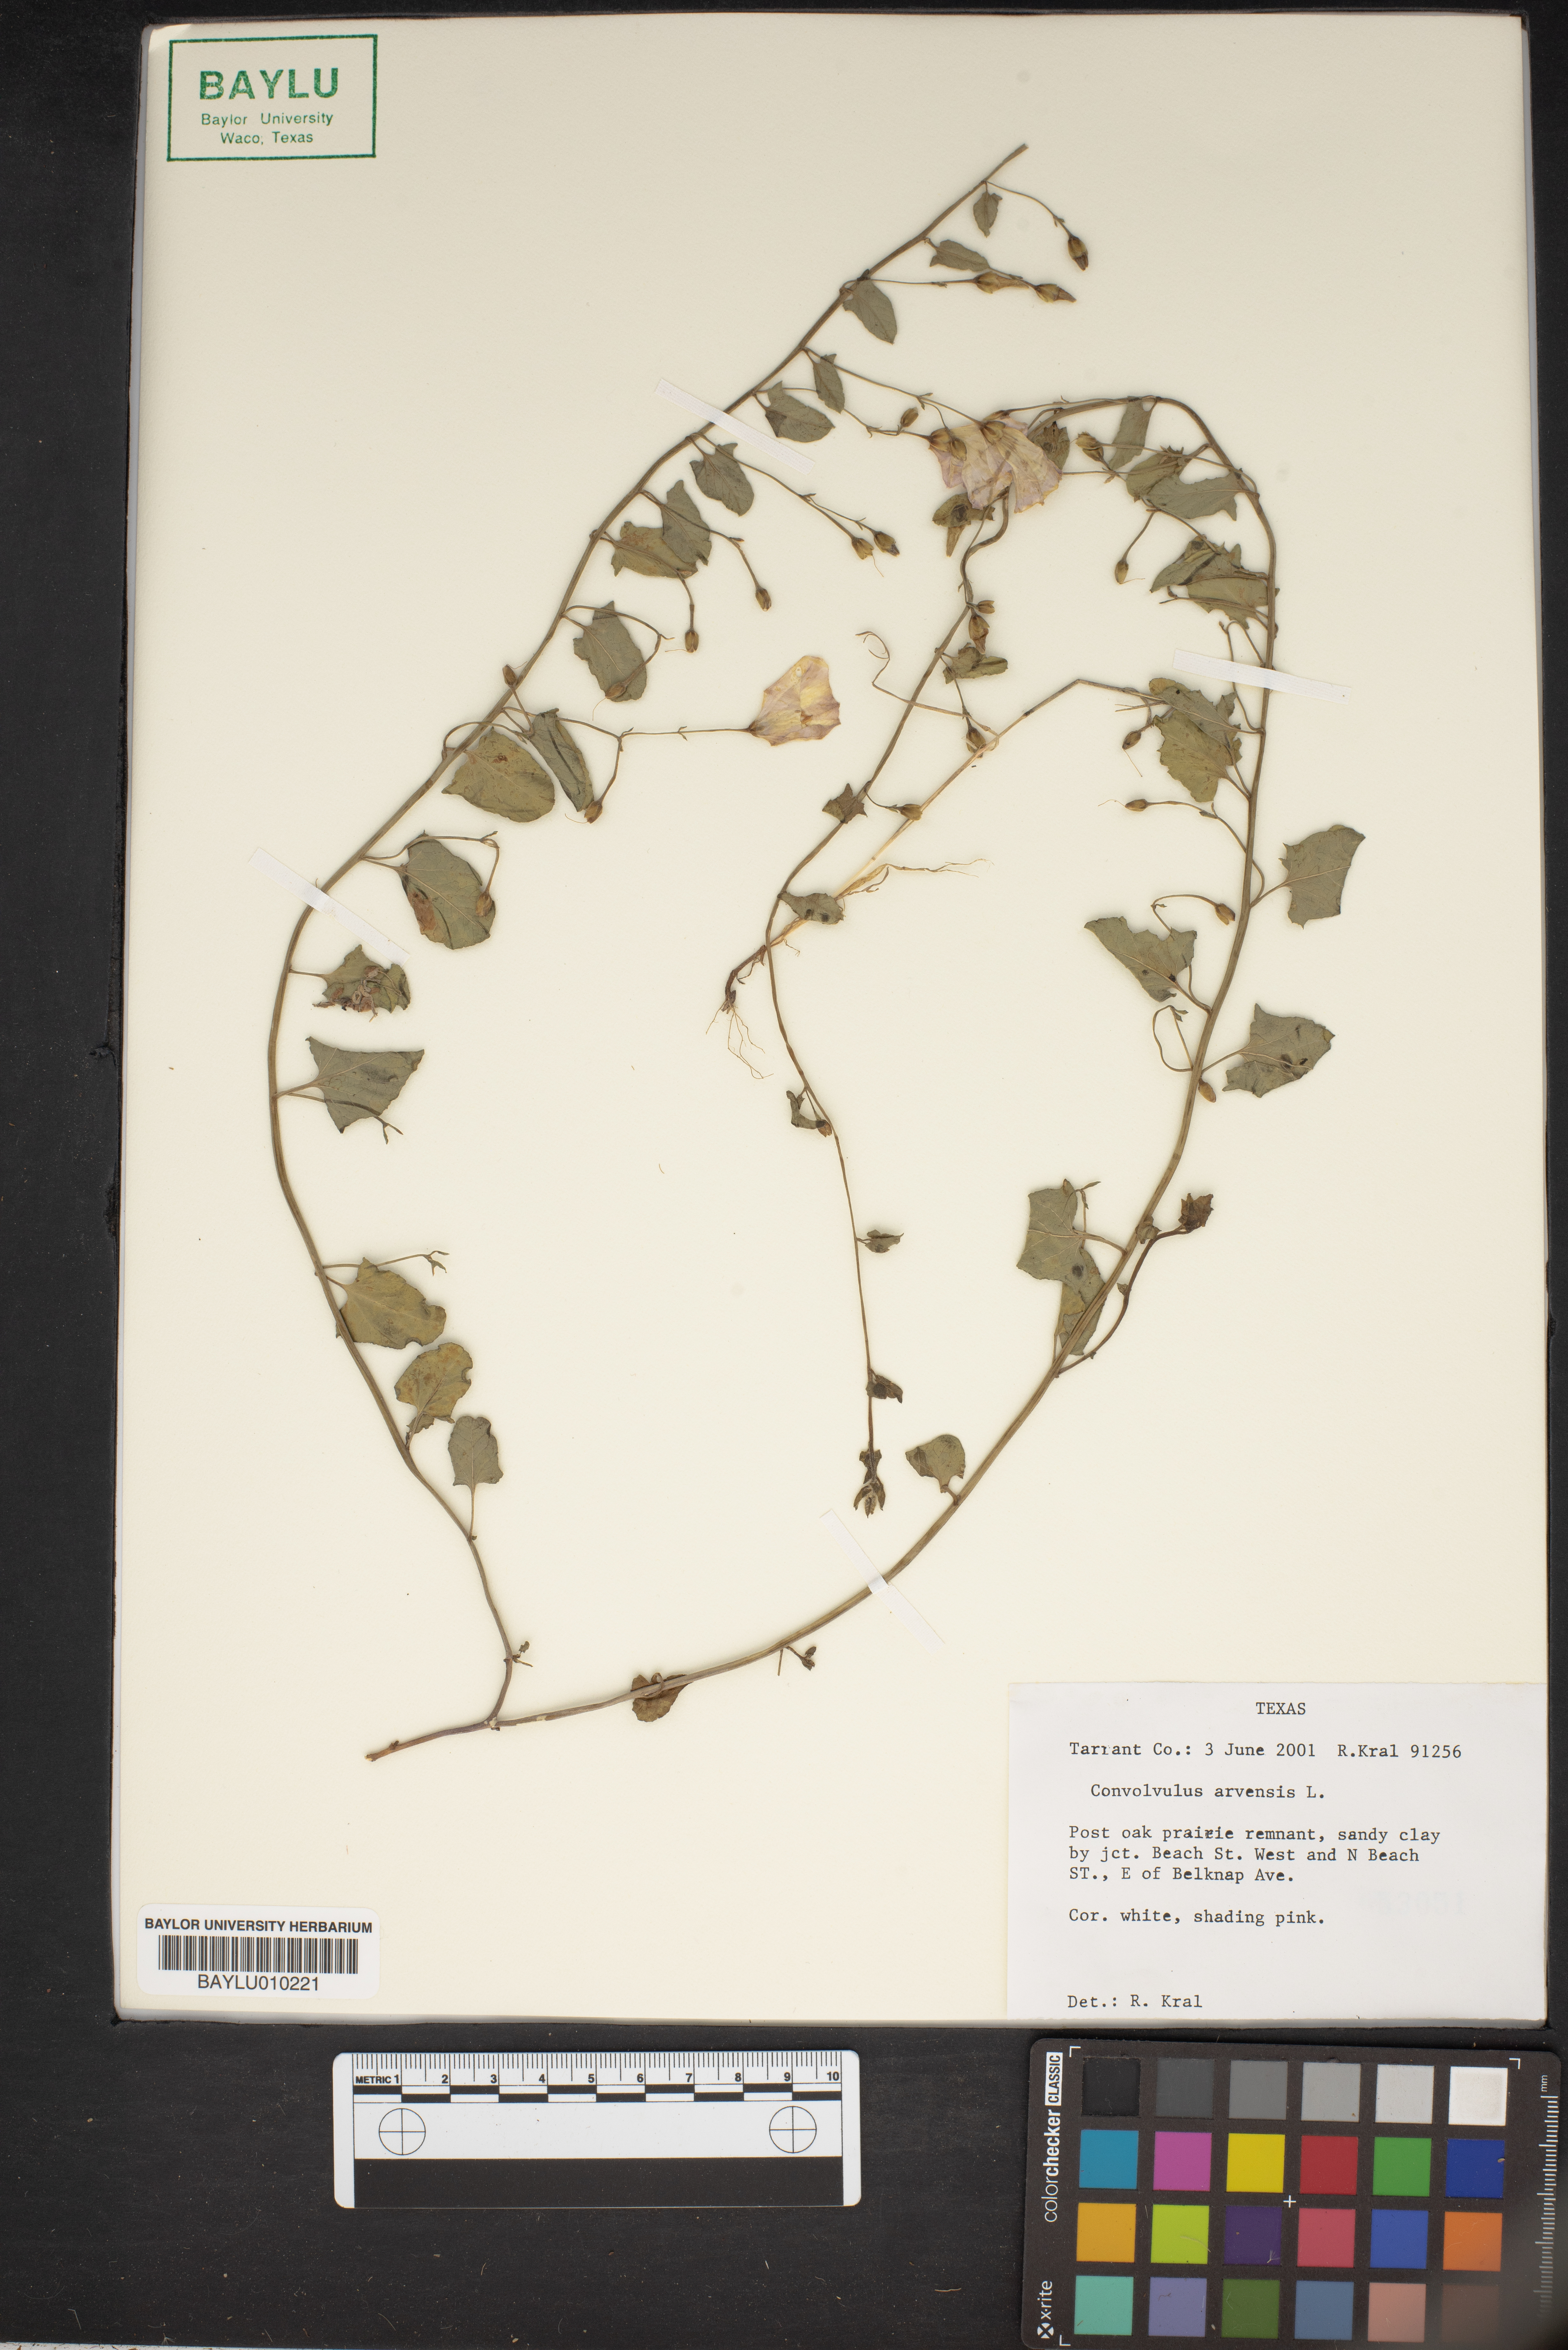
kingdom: Plantae
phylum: Tracheophyta
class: Magnoliopsida
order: Solanales
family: Convolvulaceae
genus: Convolvulus
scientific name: Convolvulus arvensis
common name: Field bindweed
